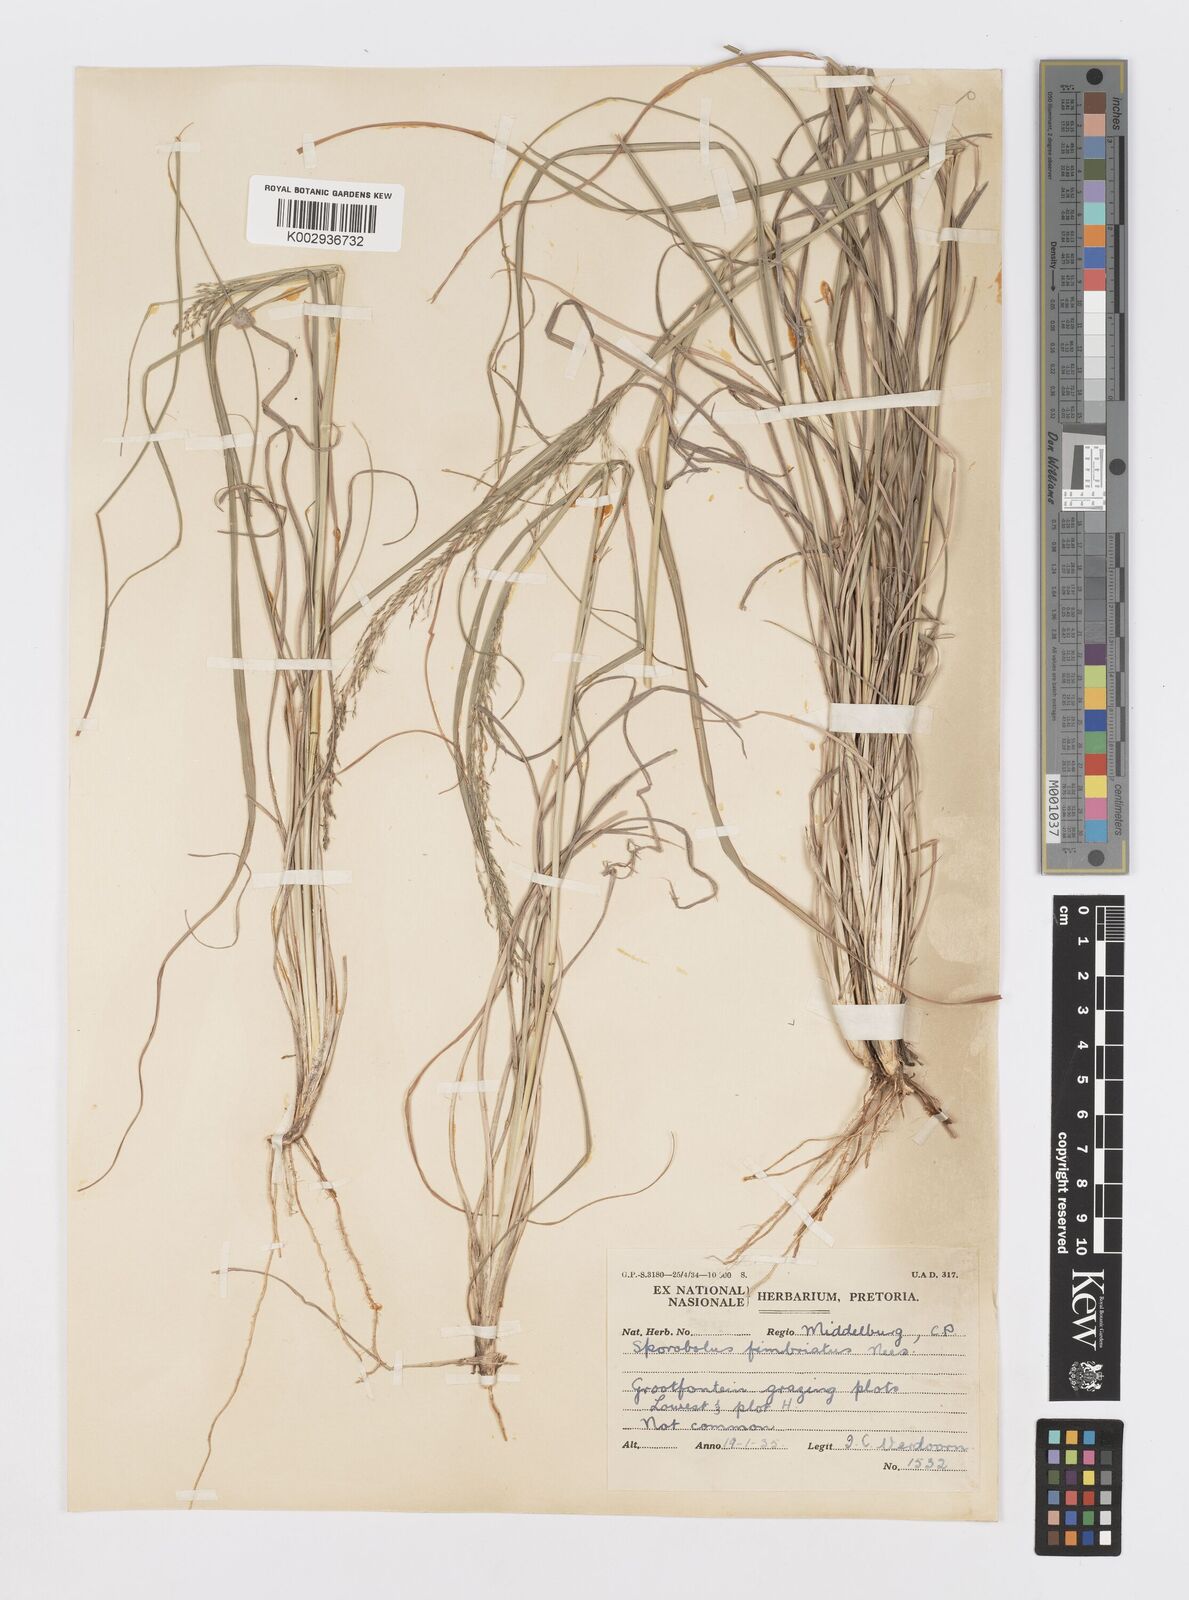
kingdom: Plantae
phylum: Tracheophyta
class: Liliopsida
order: Poales
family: Poaceae
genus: Sporobolus
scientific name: Sporobolus fimbriatus
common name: Fringed dropseed
